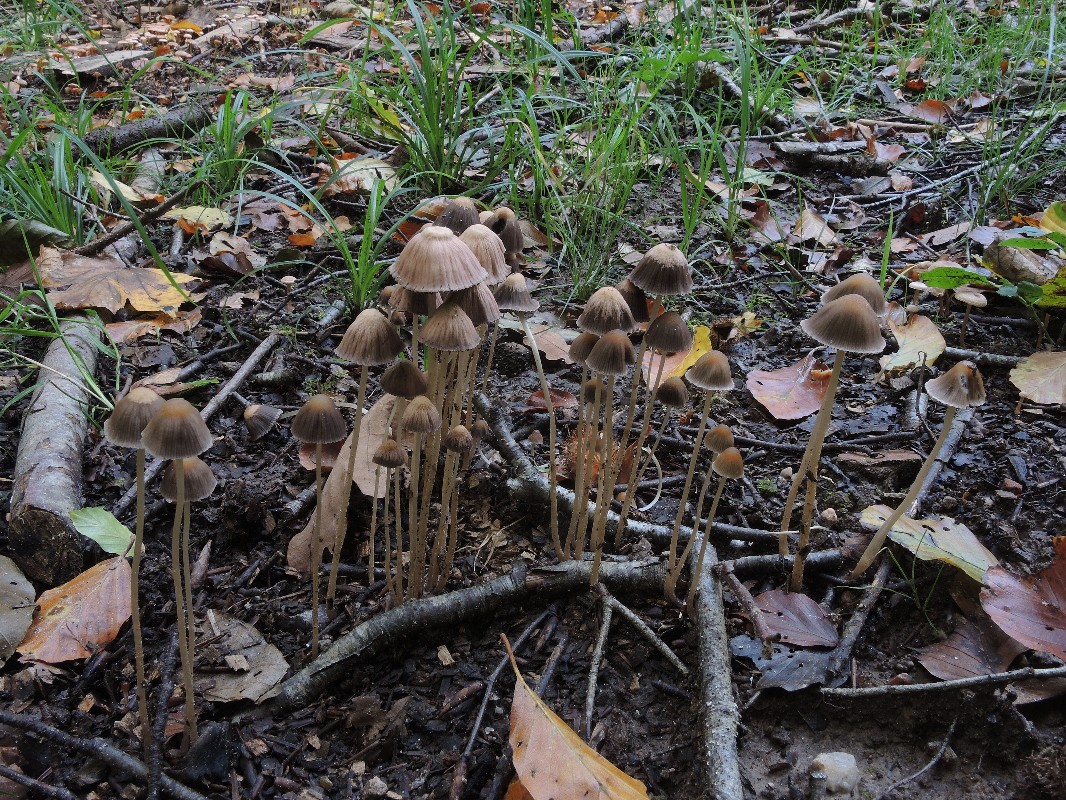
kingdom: Fungi
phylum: Basidiomycota
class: Agaricomycetes
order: Agaricales
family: Psathyrellaceae
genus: Parasola
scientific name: Parasola conopilea
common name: kegle-hjulhat
